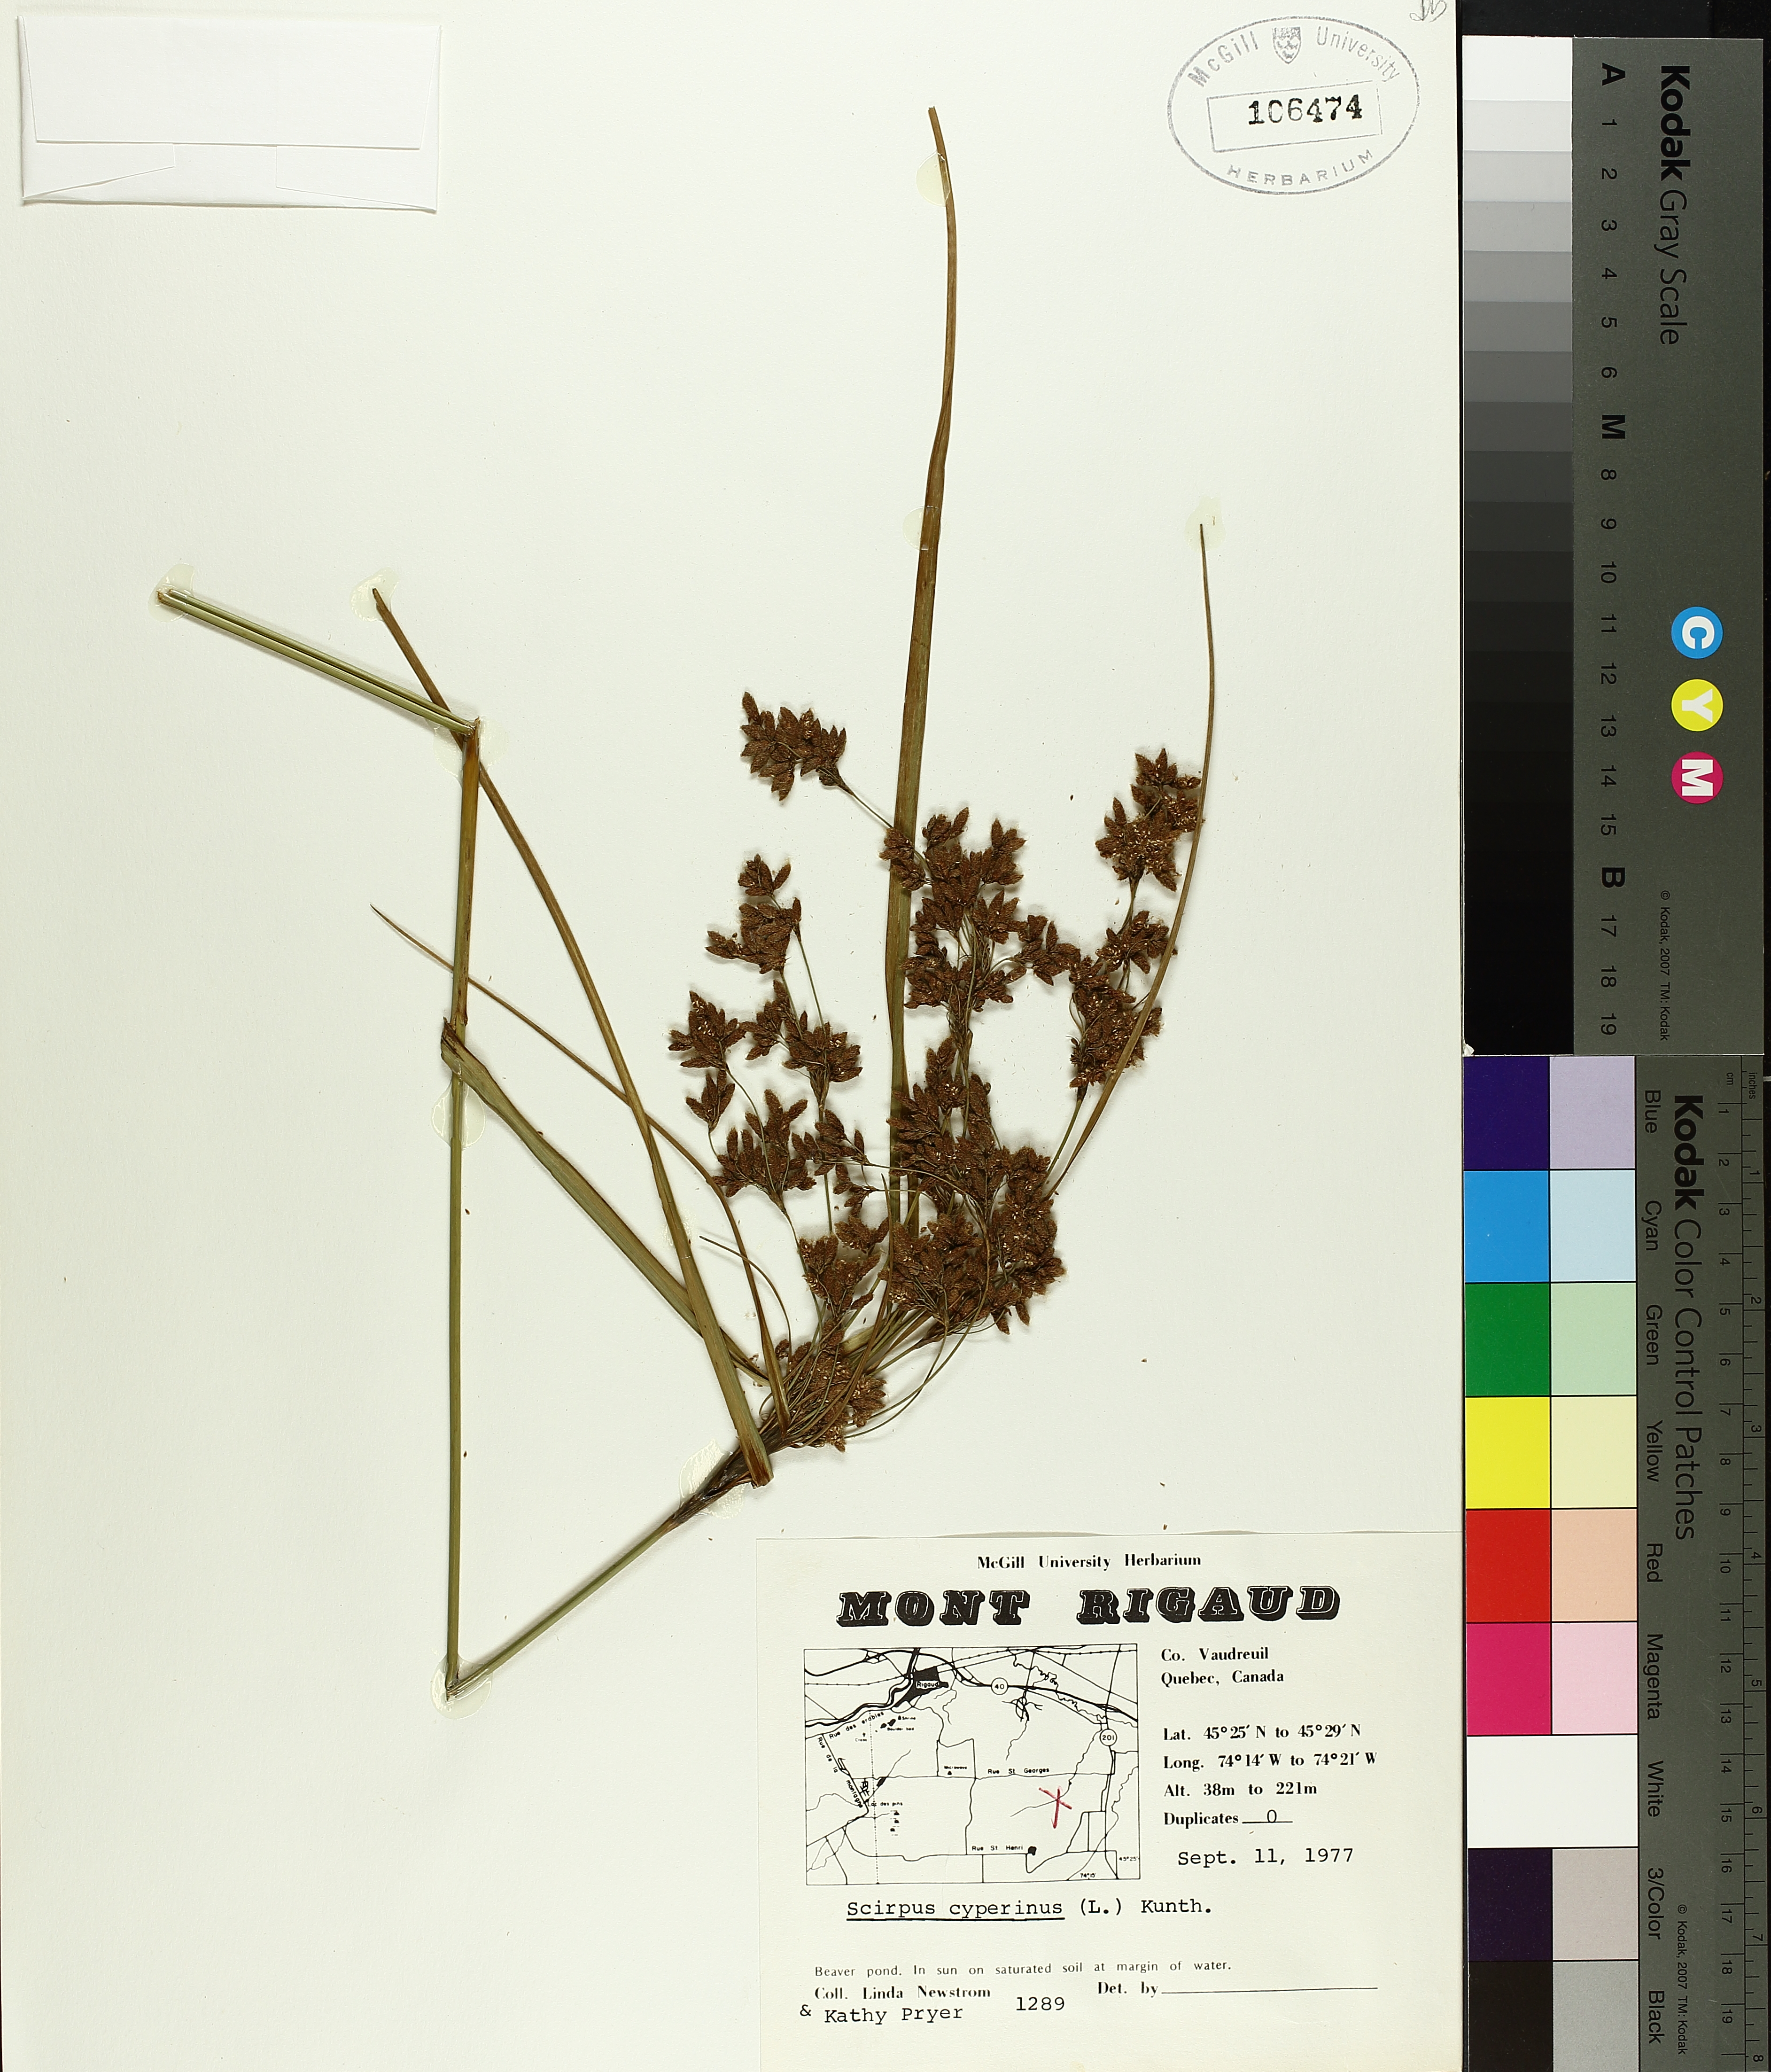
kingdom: Plantae
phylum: Tracheophyta
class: Liliopsida
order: Poales
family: Cyperaceae
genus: Scirpus
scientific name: Scirpus cyperinus
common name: Black-sheathed bulrush
